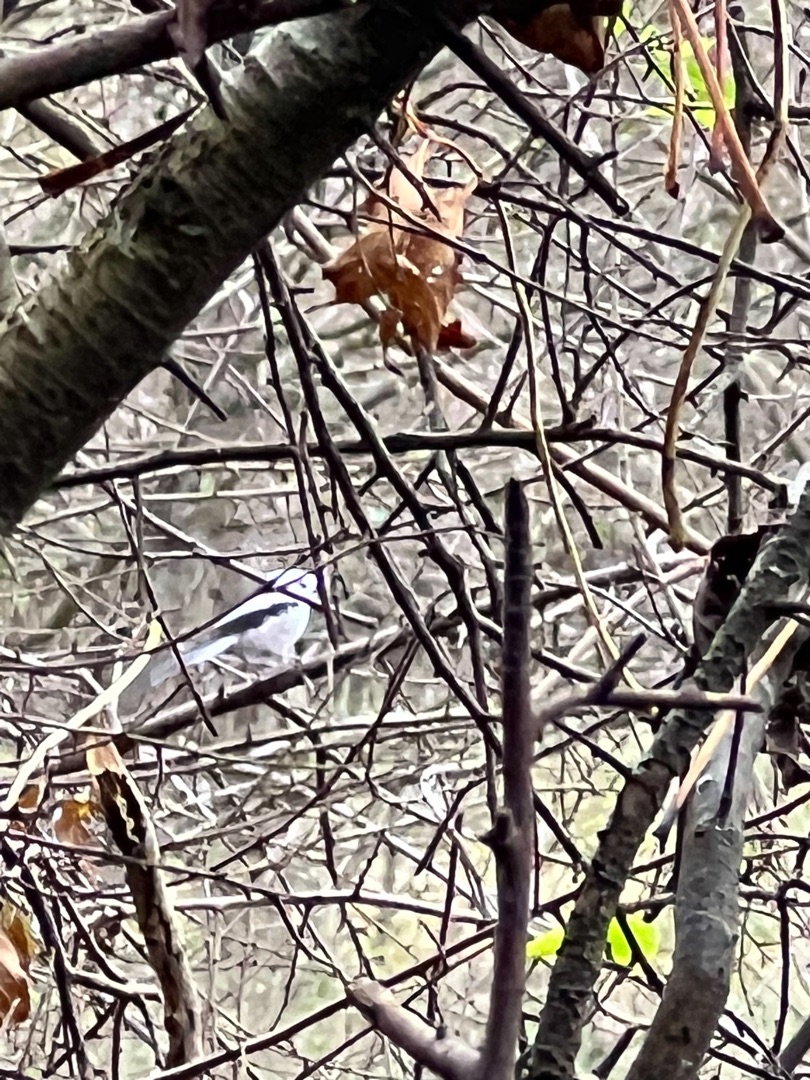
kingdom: Animalia
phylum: Chordata
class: Aves
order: Passeriformes
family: Aegithalidae
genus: Aegithalos
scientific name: Aegithalos caudatus
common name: Nordlig halemejse
